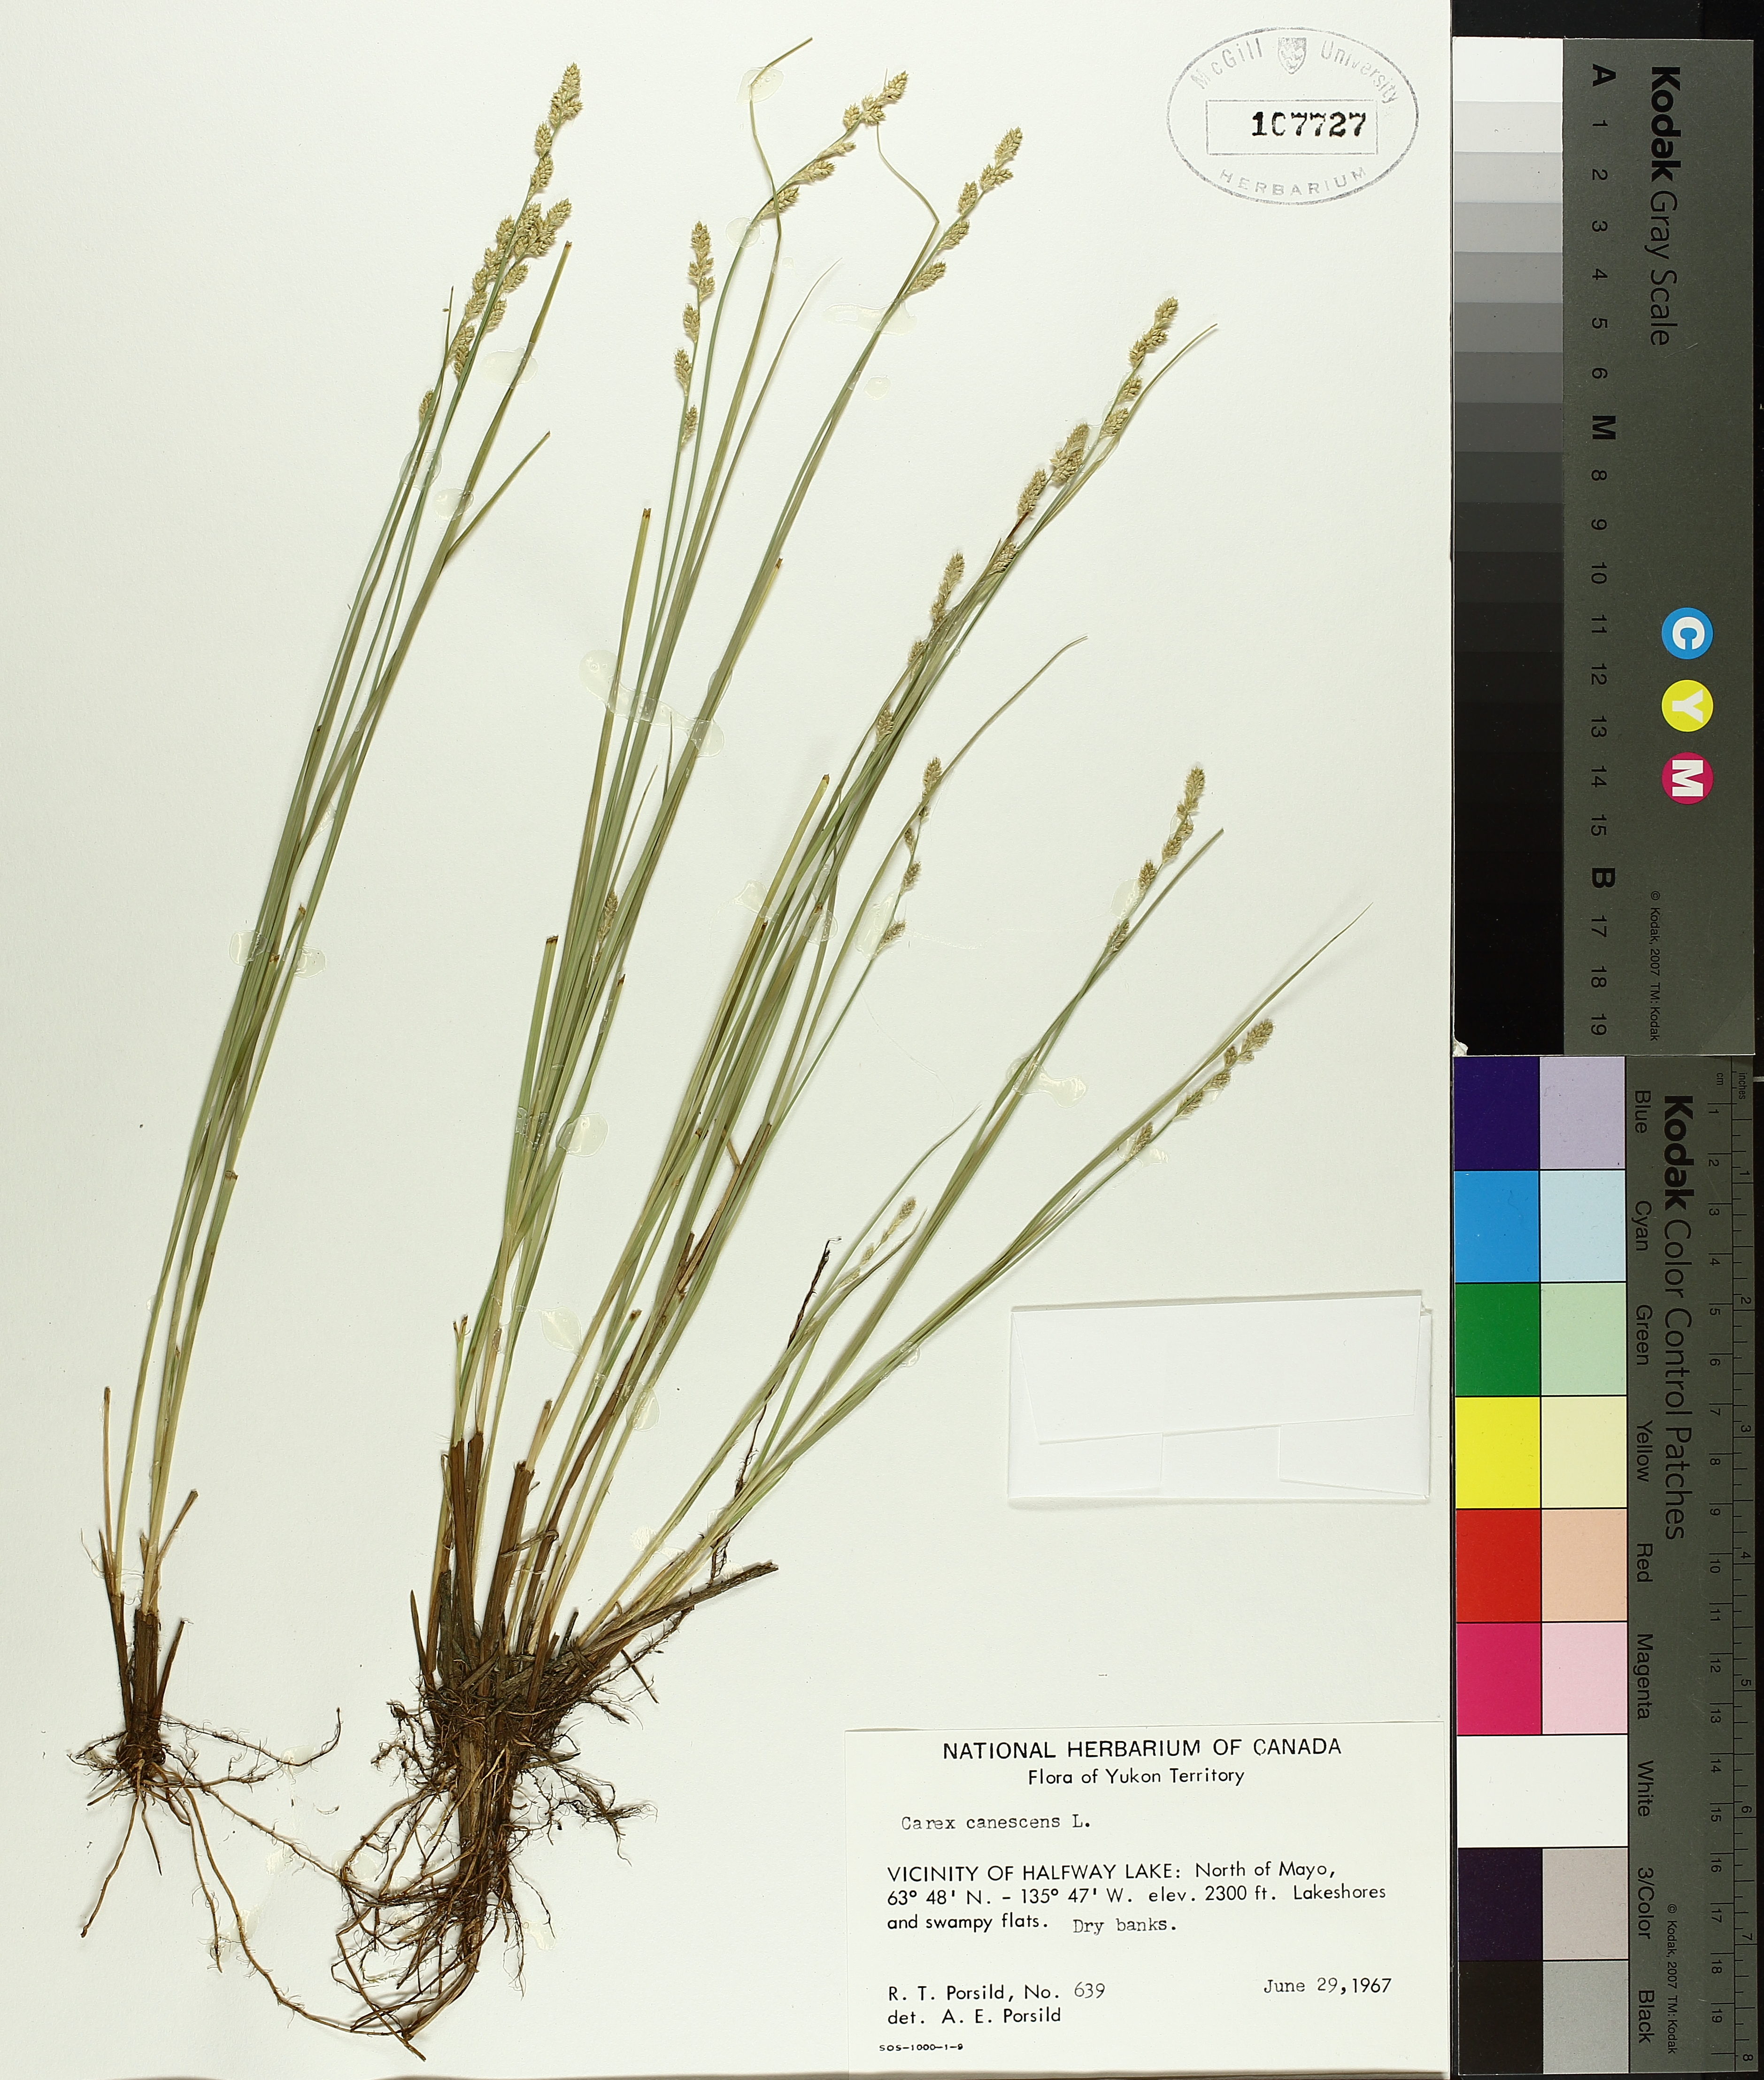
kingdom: Plantae
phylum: Tracheophyta
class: Liliopsida
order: Poales
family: Cyperaceae
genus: Carex
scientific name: Carex canescens
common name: White sedge
